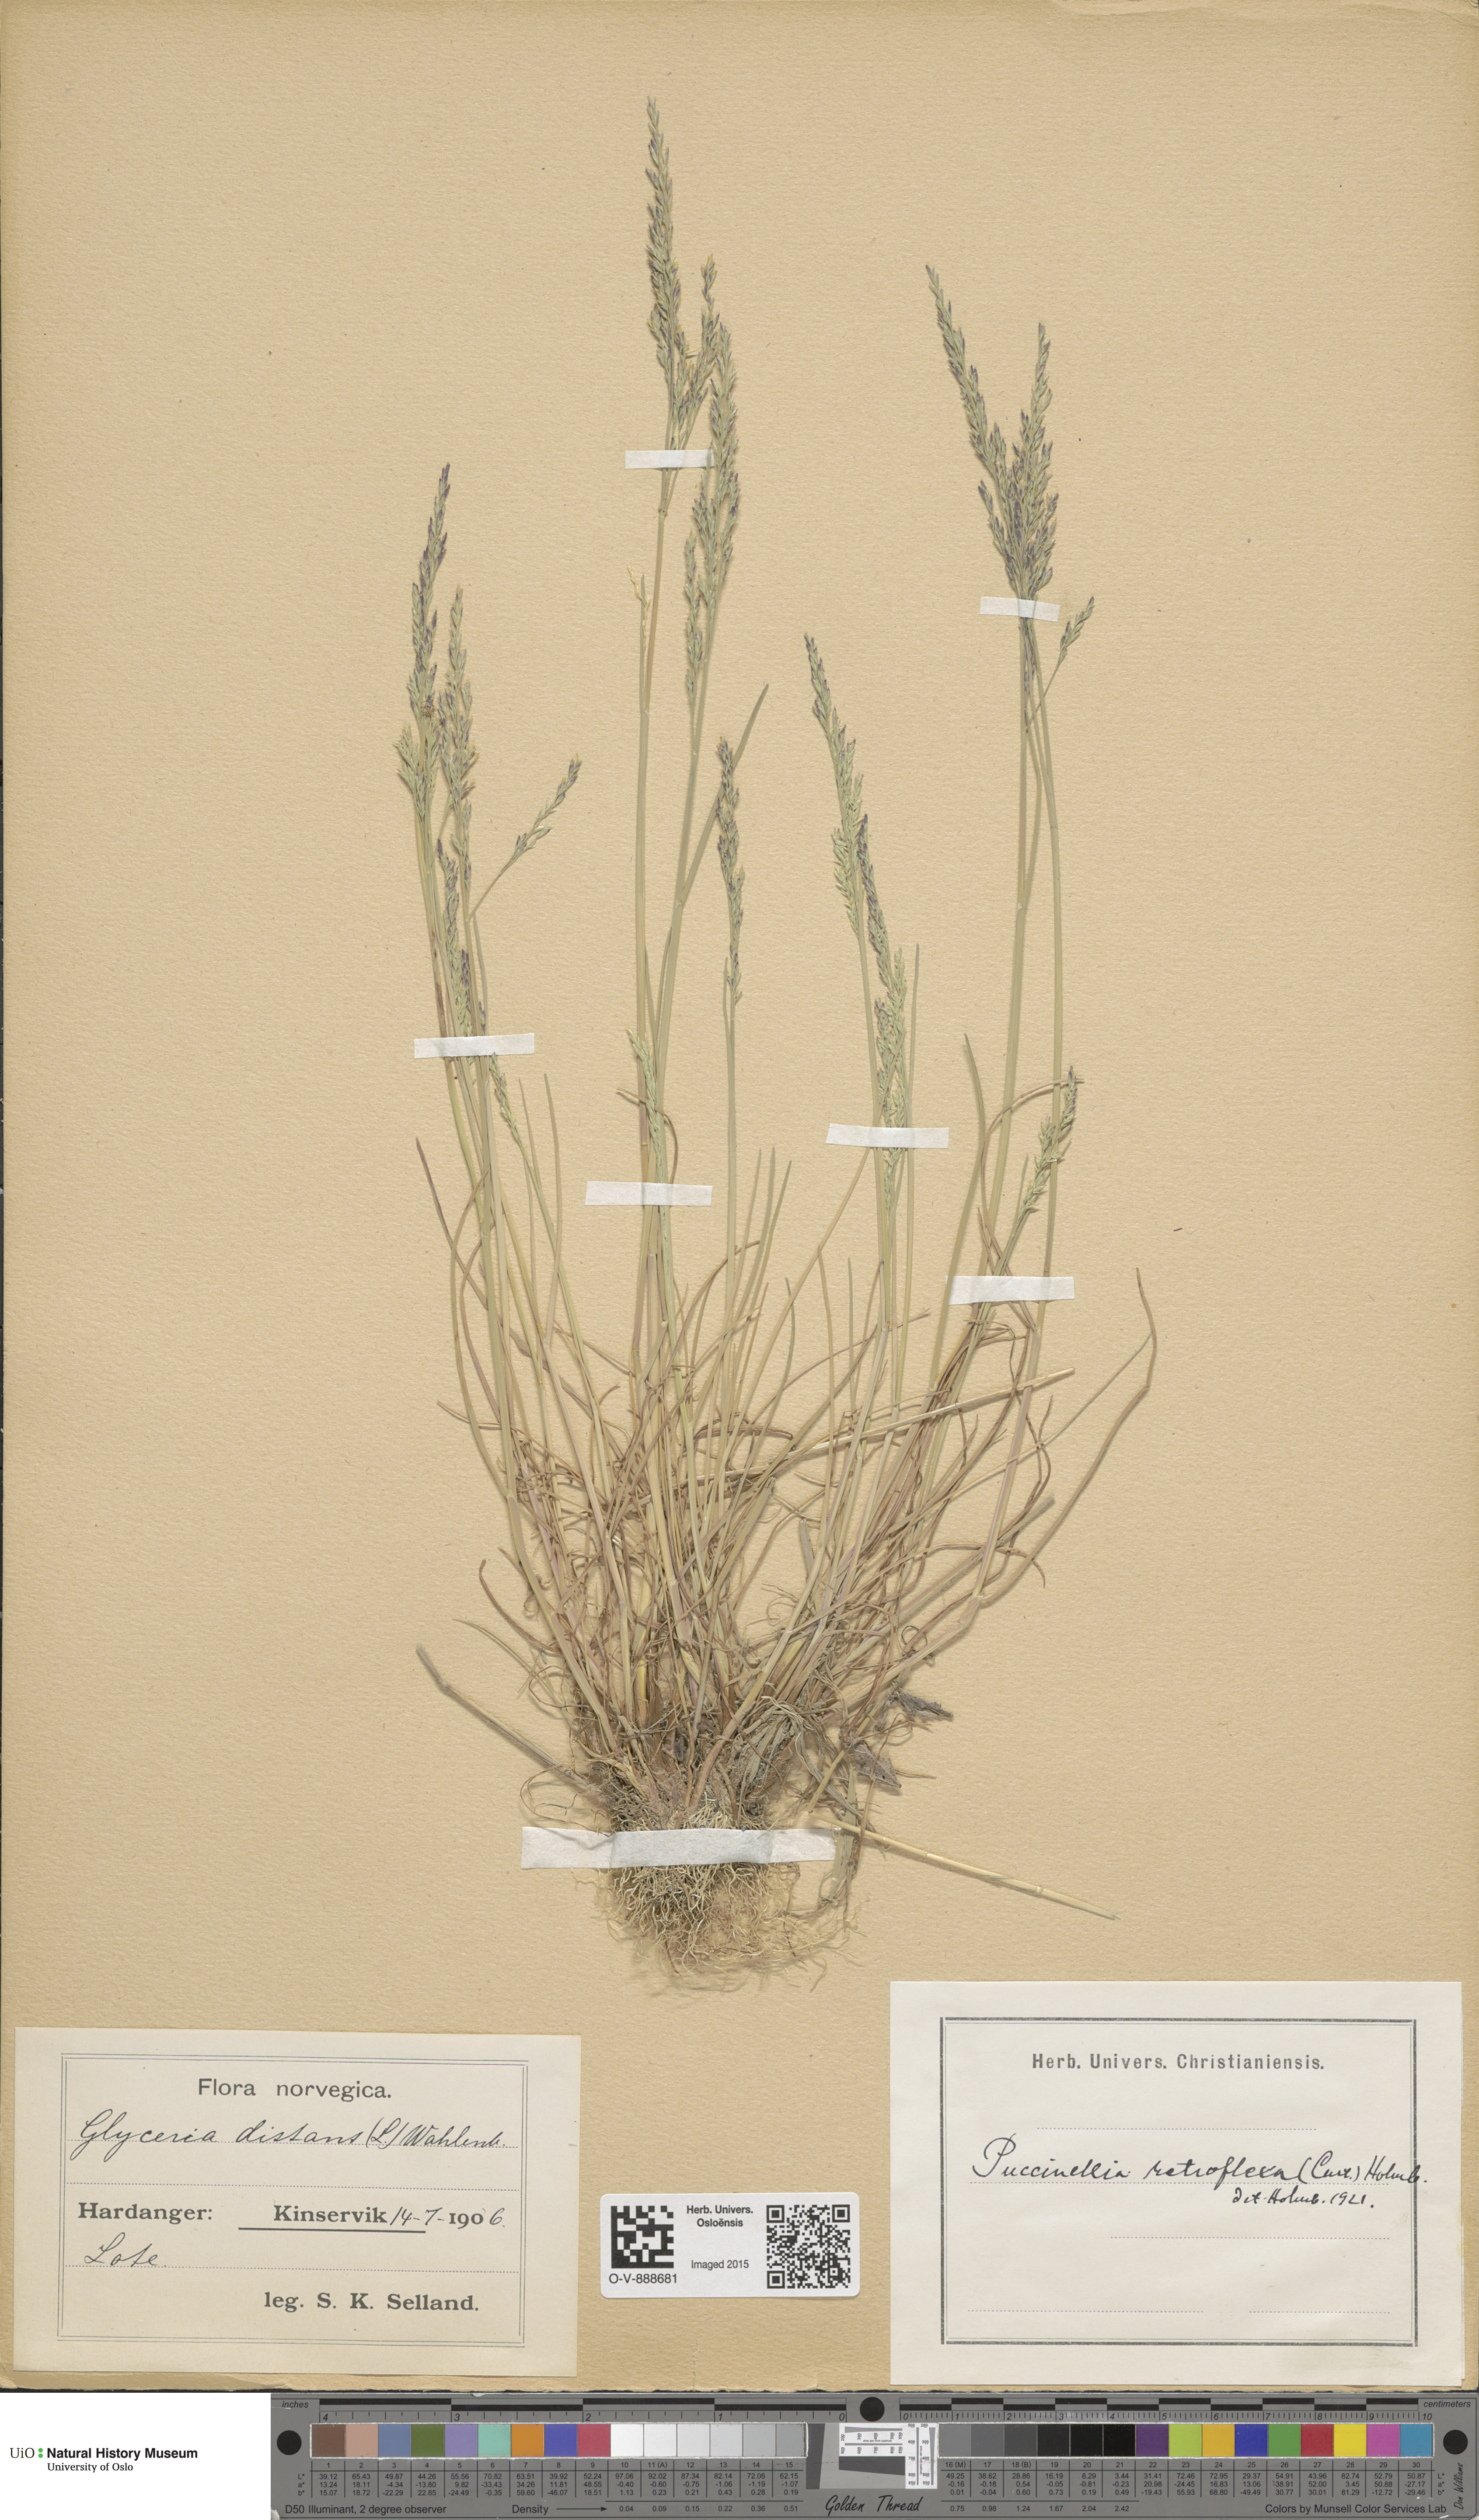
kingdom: Plantae
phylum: Tracheophyta
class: Liliopsida
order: Poales
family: Poaceae
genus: Puccinellia
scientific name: Puccinellia distans
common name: Weeping alkaligrass
